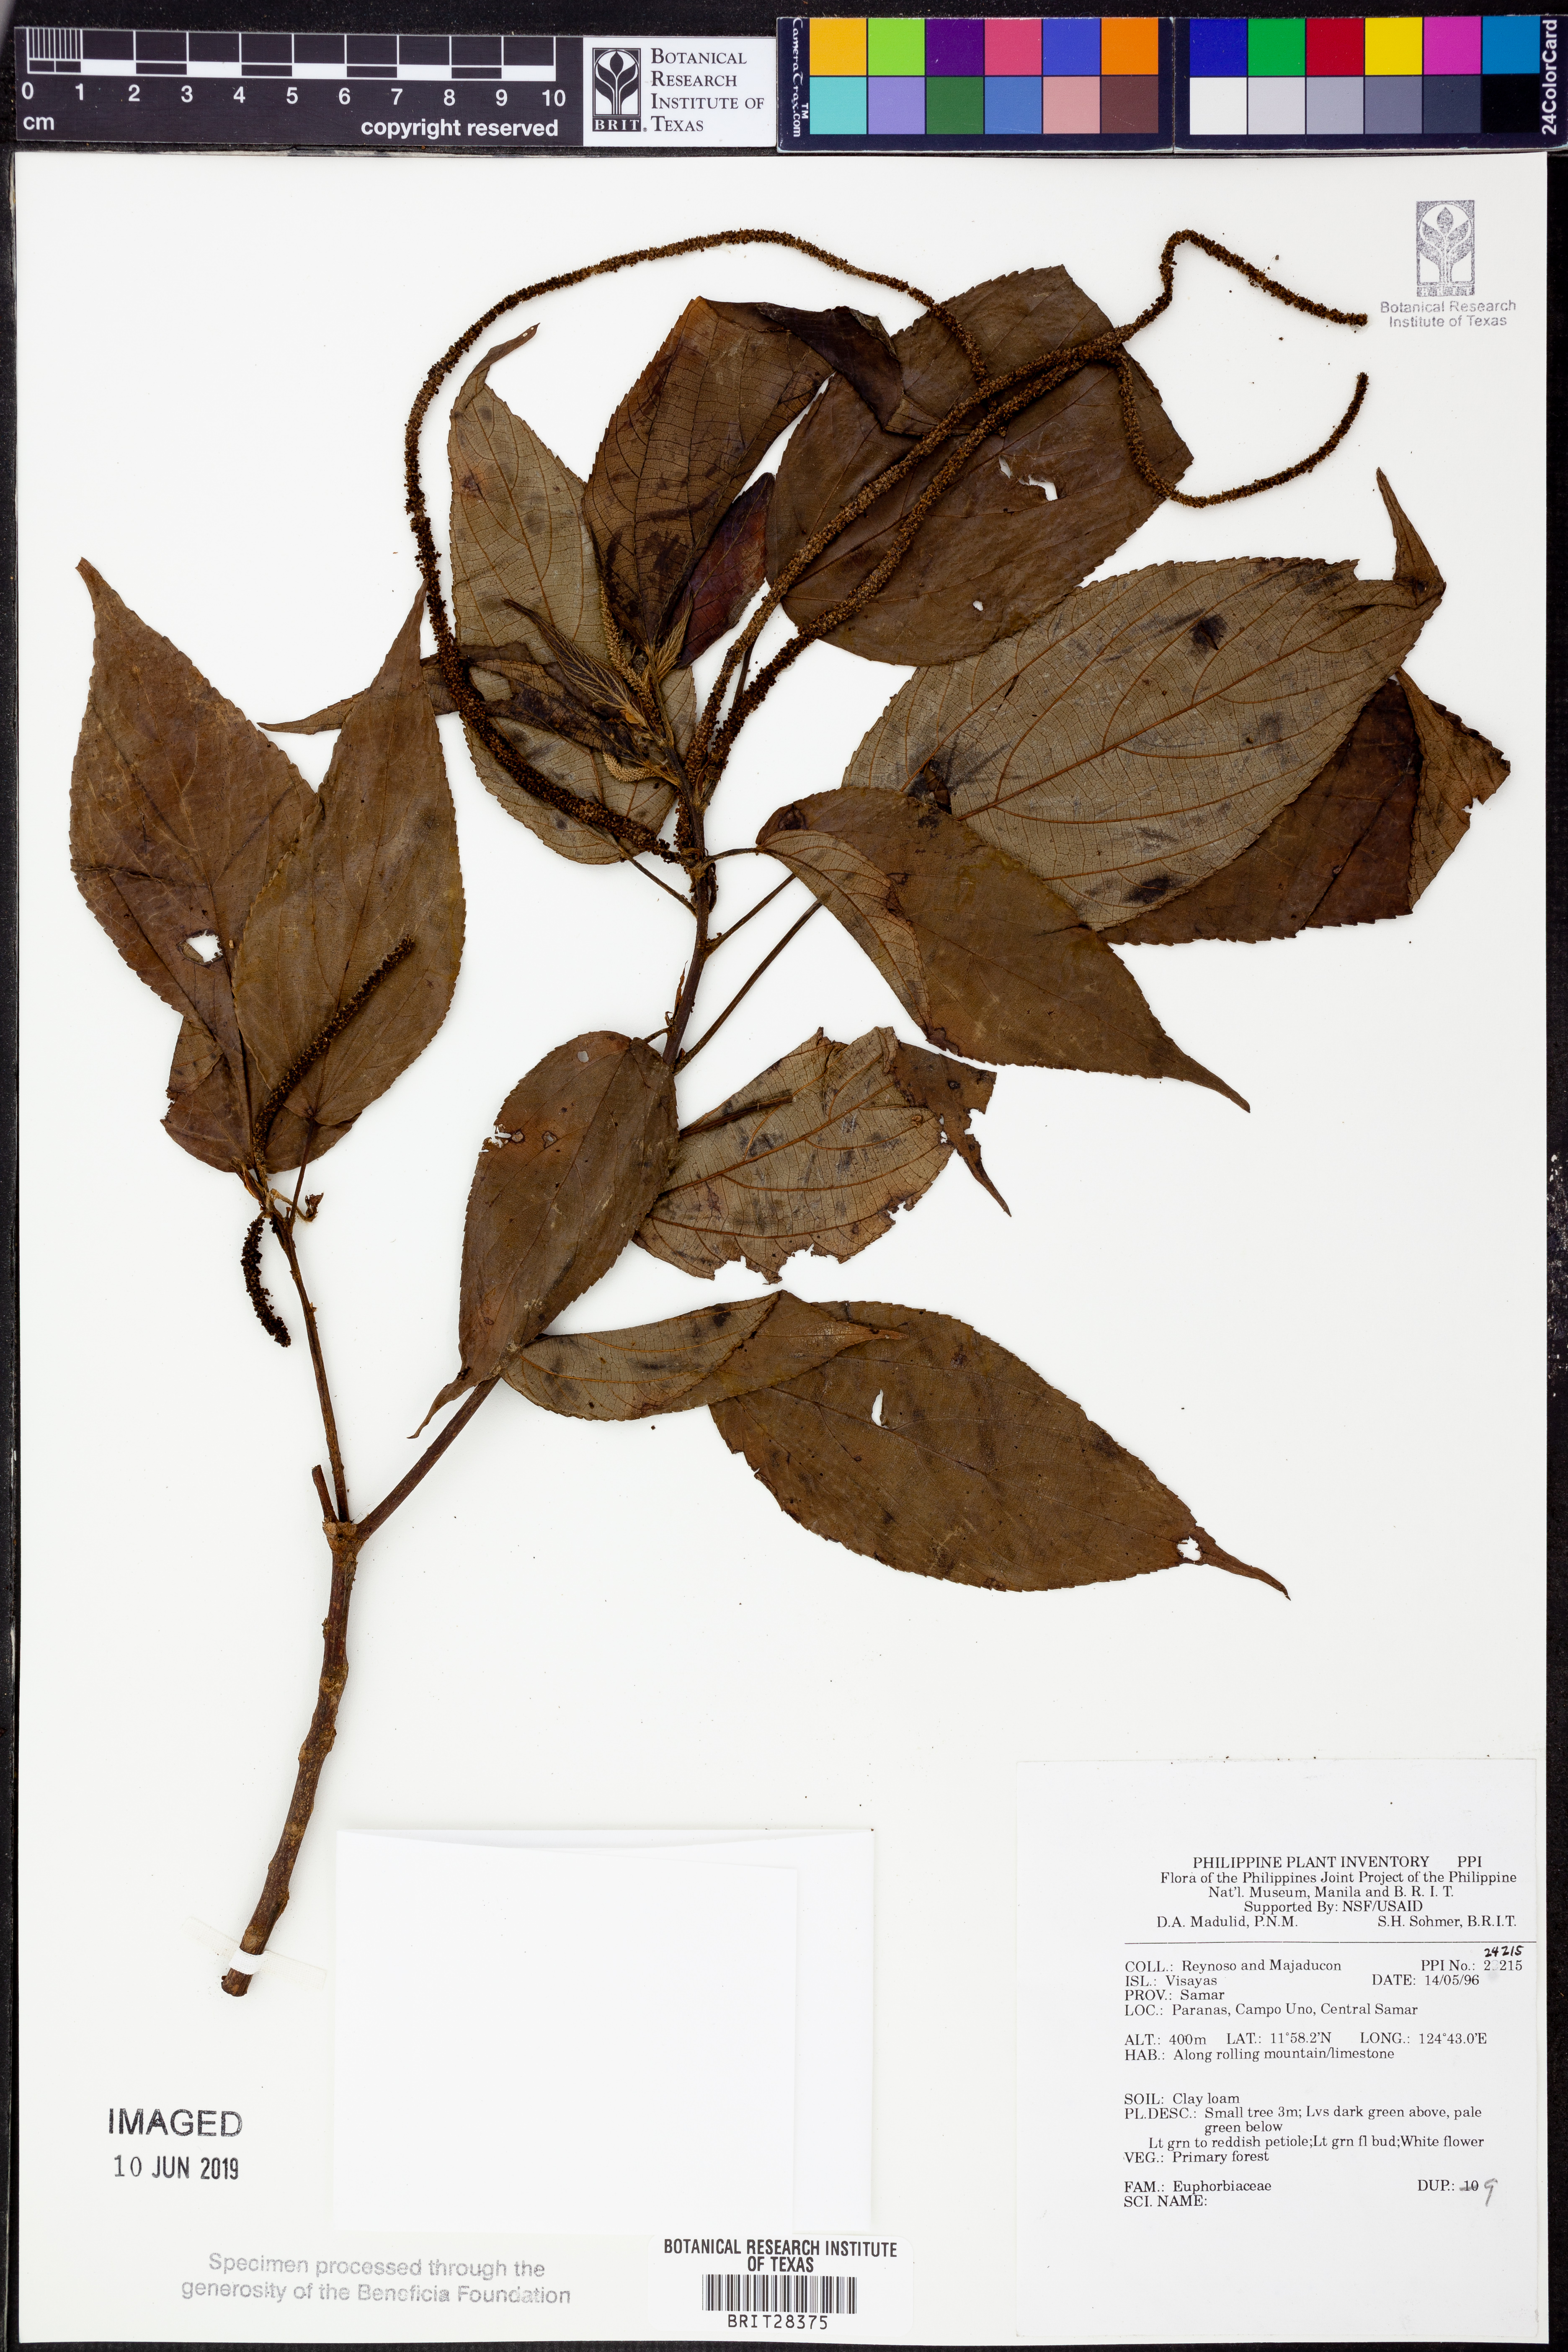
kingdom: Plantae
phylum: Tracheophyta
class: Magnoliopsida
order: Malpighiales
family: Euphorbiaceae
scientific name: Euphorbiaceae
